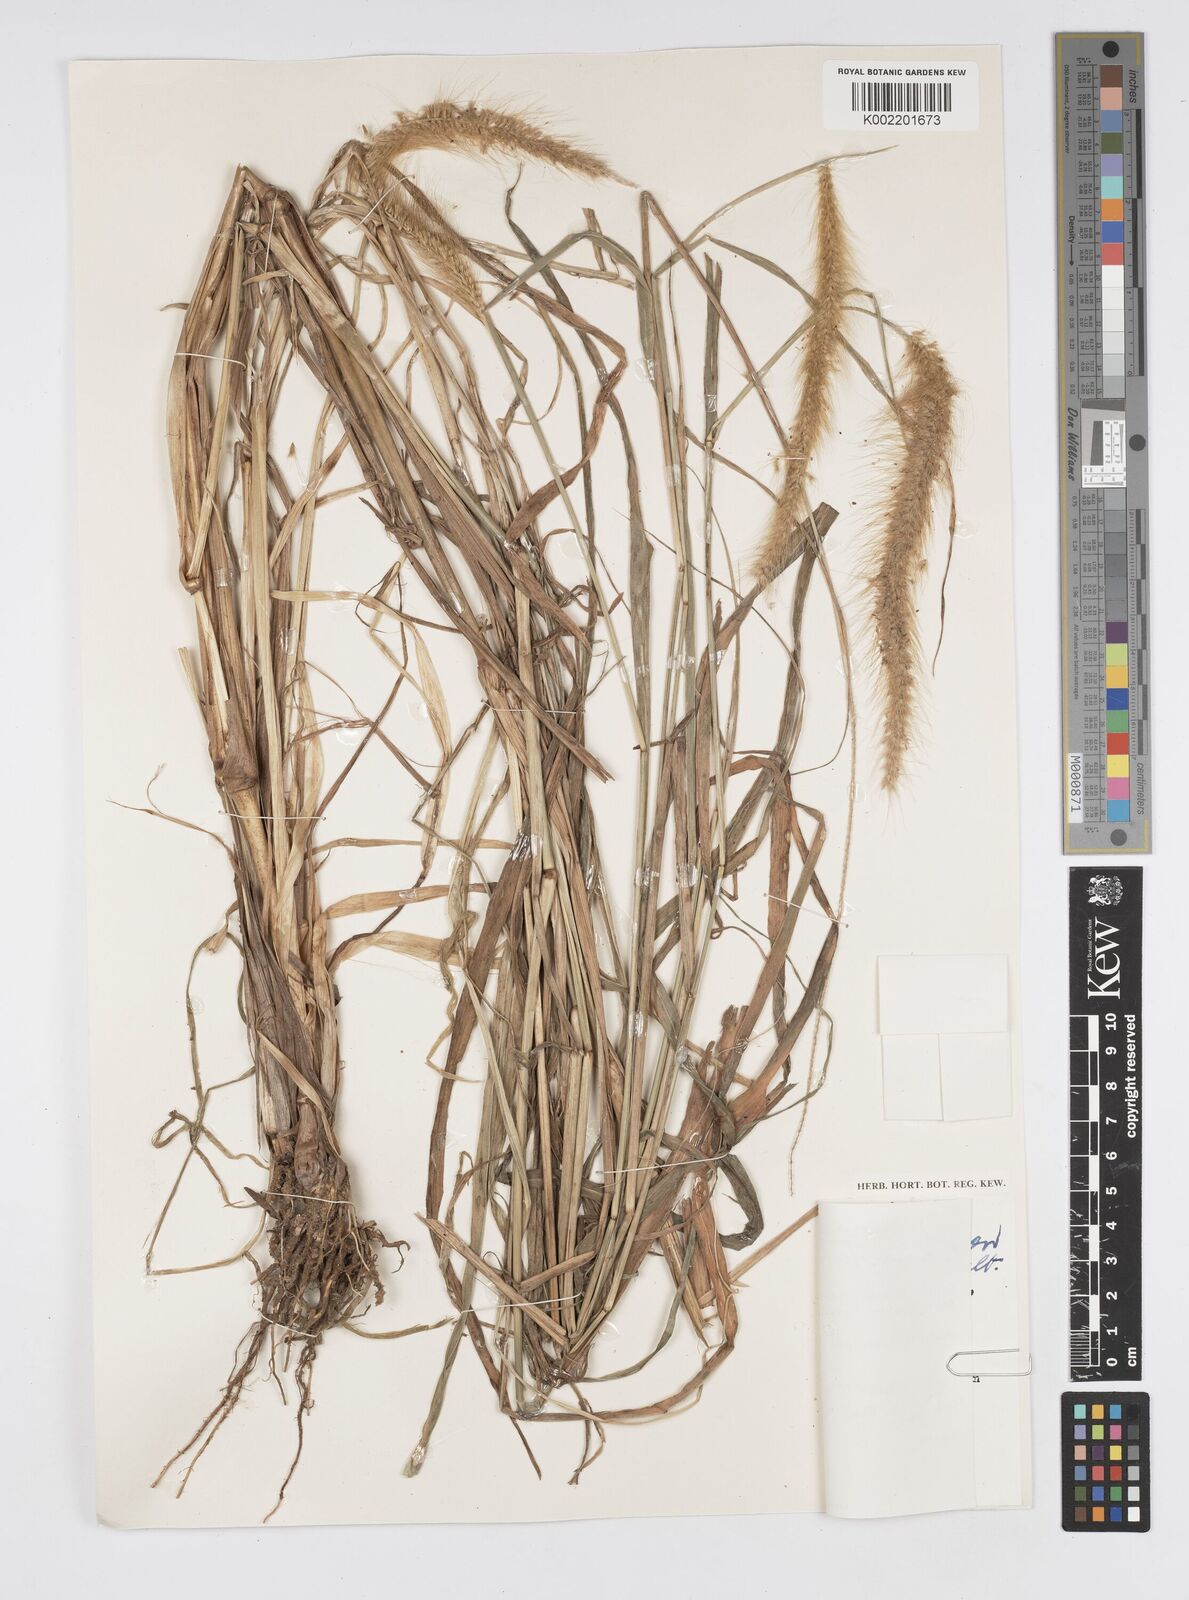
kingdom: Plantae
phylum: Tracheophyta
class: Liliopsida
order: Poales
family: Poaceae
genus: Setaria
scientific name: Setaria parviflora
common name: Knotroot bristle-grass
